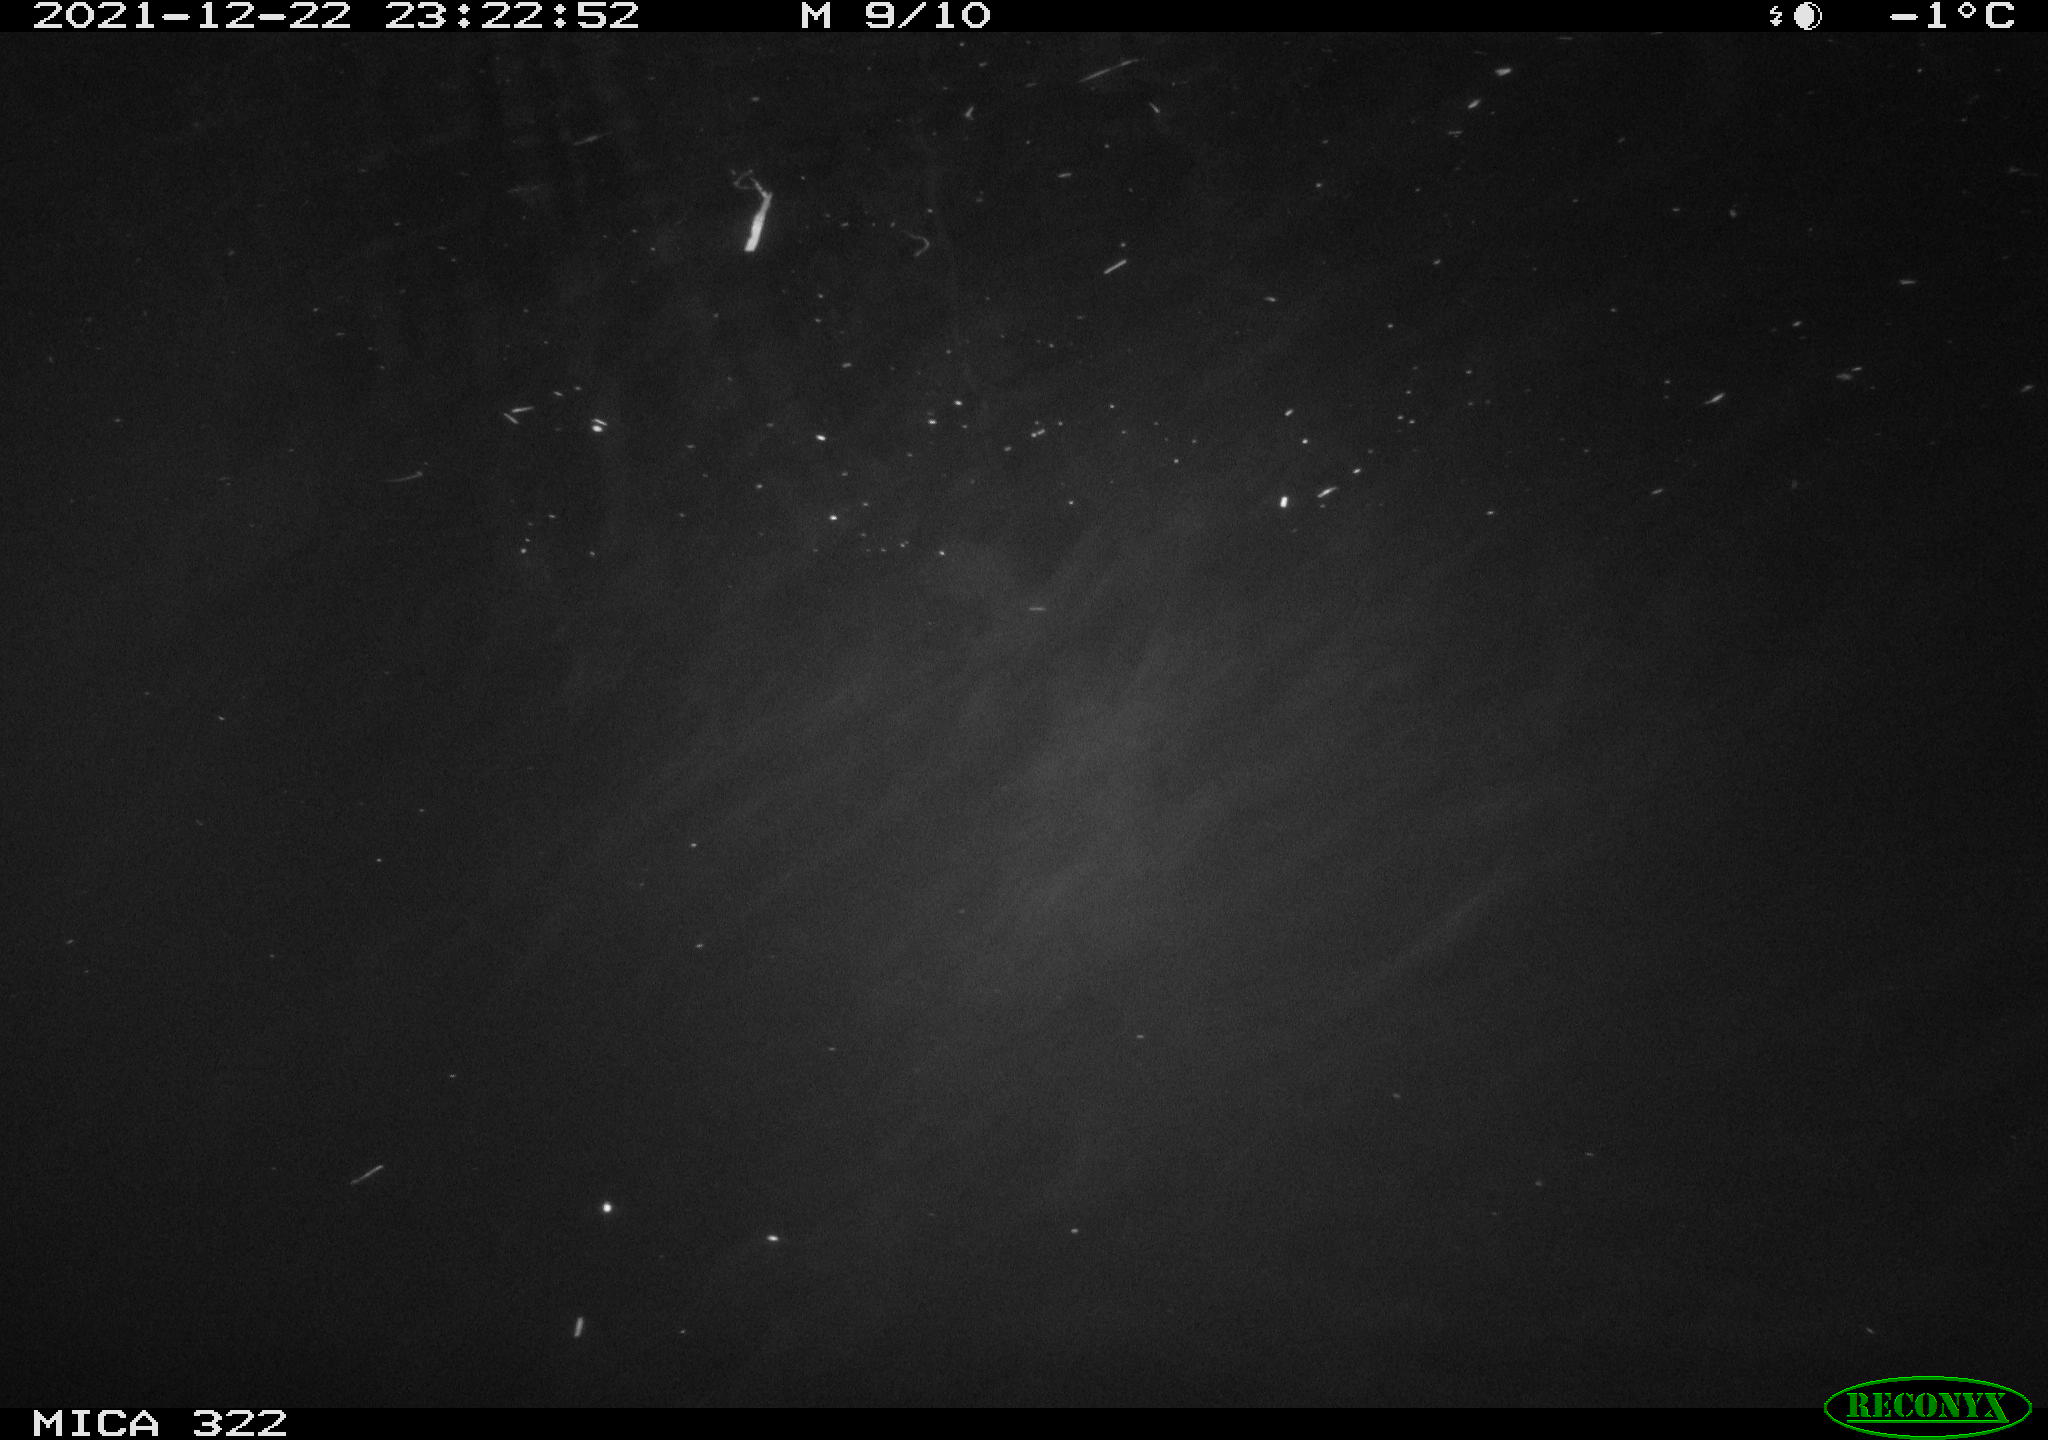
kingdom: Animalia
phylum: Chordata
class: Mammalia
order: Rodentia
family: Muridae
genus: Rattus
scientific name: Rattus norvegicus
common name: Brown rat
